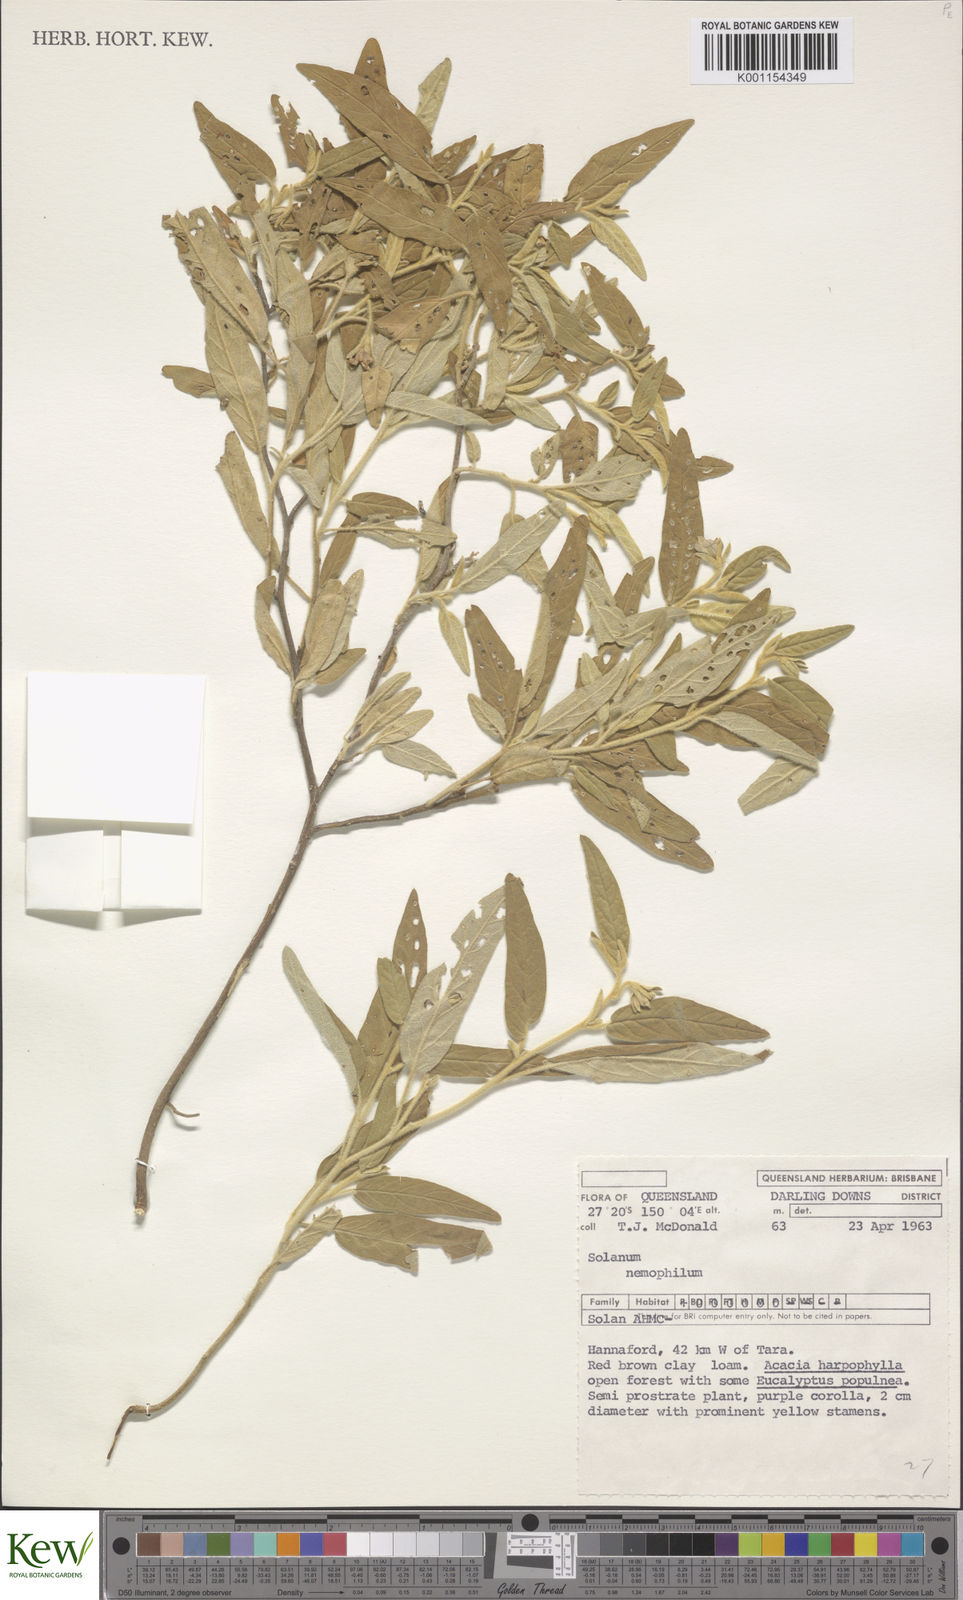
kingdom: Plantae
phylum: Tracheophyta
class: Magnoliopsida
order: Solanales
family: Solanaceae
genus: Solanum
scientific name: Solanum nemophilum
